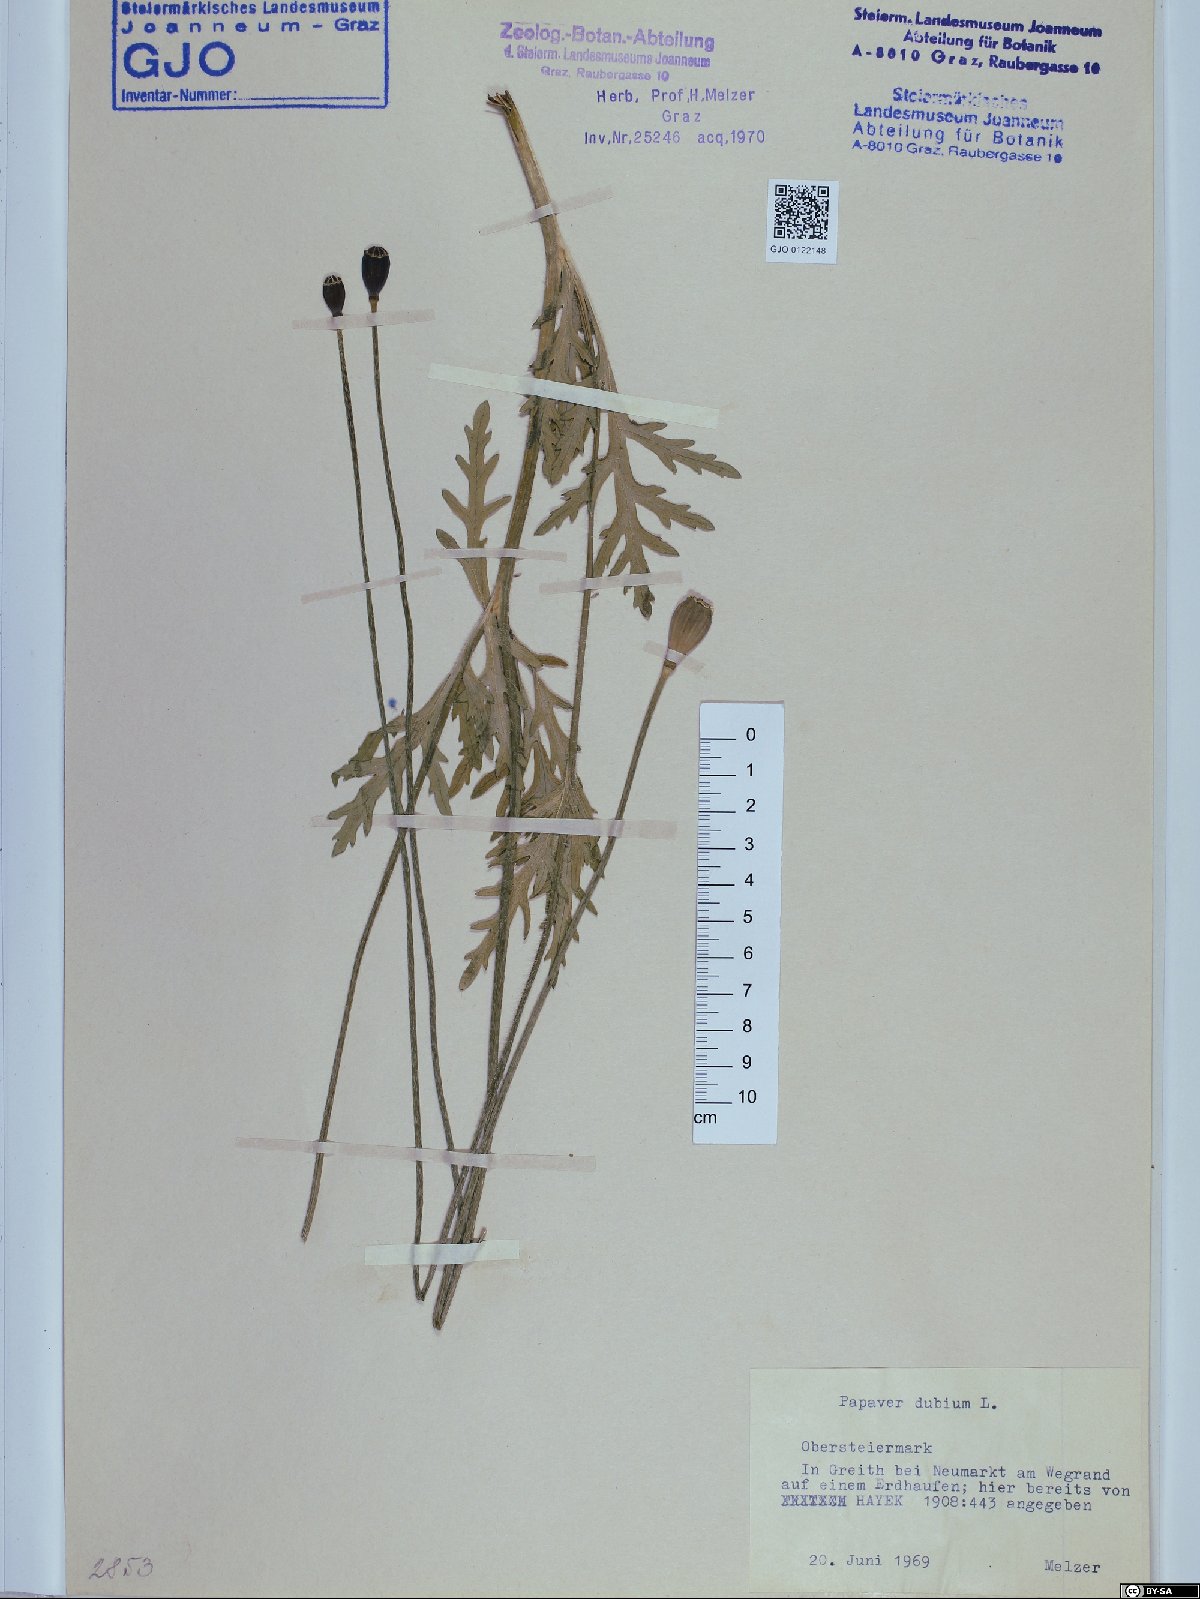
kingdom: Plantae
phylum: Tracheophyta
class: Magnoliopsida
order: Ranunculales
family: Papaveraceae
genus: Papaver
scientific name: Papaver dubium
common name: Long-headed poppy
